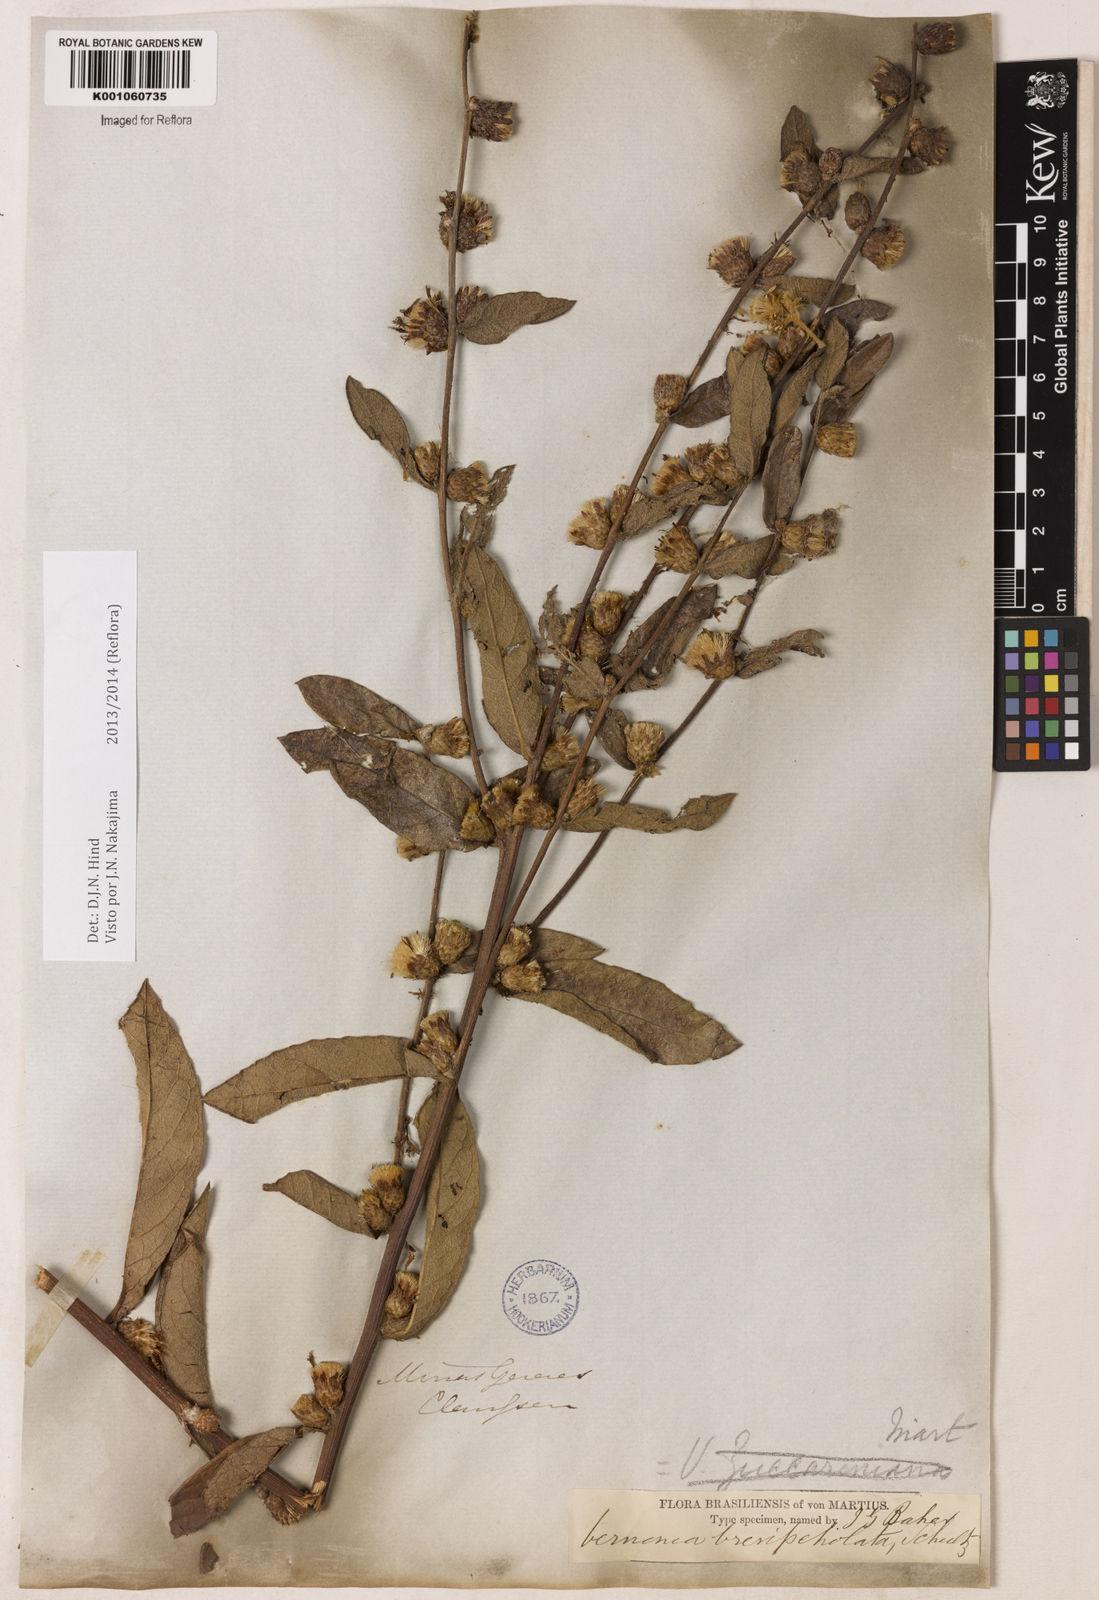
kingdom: Plantae
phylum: Tracheophyta
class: Magnoliopsida
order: Asterales
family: Asteraceae
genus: Lessingianthus
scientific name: Lessingianthus brevipetiolatus
